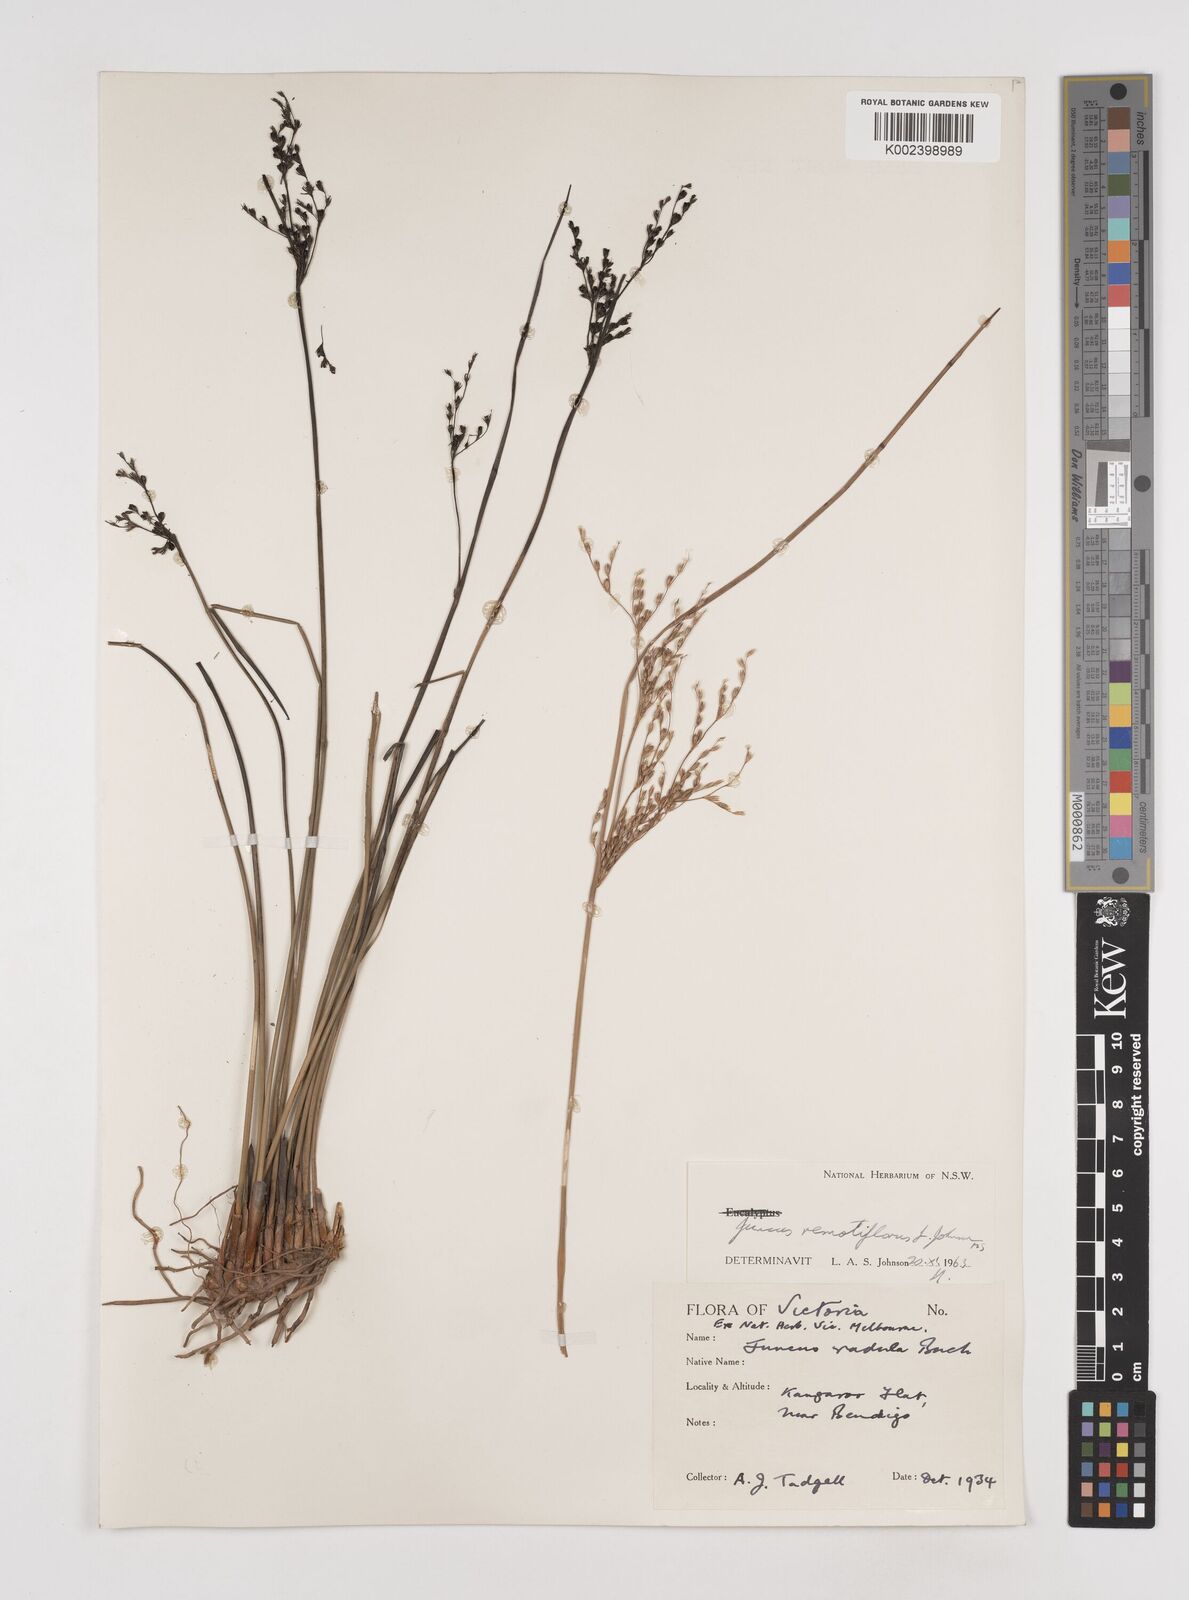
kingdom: Plantae
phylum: Tracheophyta
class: Liliopsida
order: Poales
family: Juncaceae
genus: Juncus
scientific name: Juncus remotiflorus
